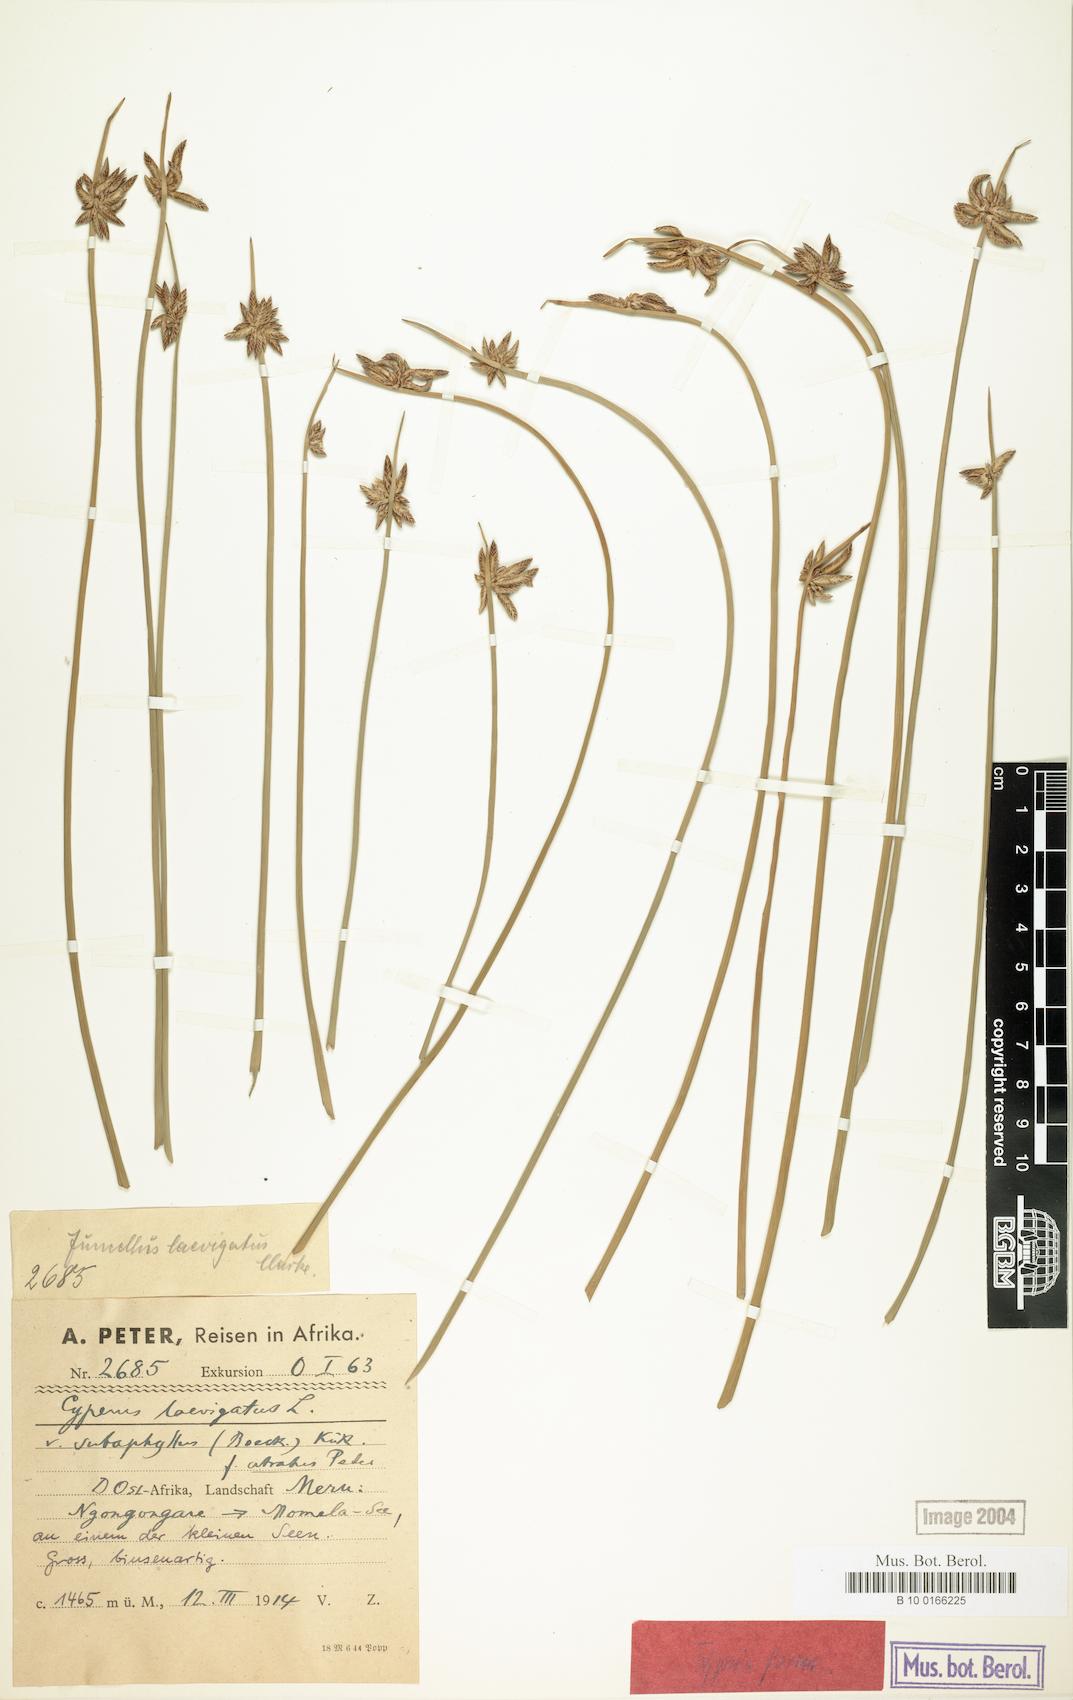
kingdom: Plantae
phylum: Tracheophyta
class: Liliopsida
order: Poales
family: Cyperaceae
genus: Cyperus
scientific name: Cyperus laevigatus
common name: Smooth flat sedge
